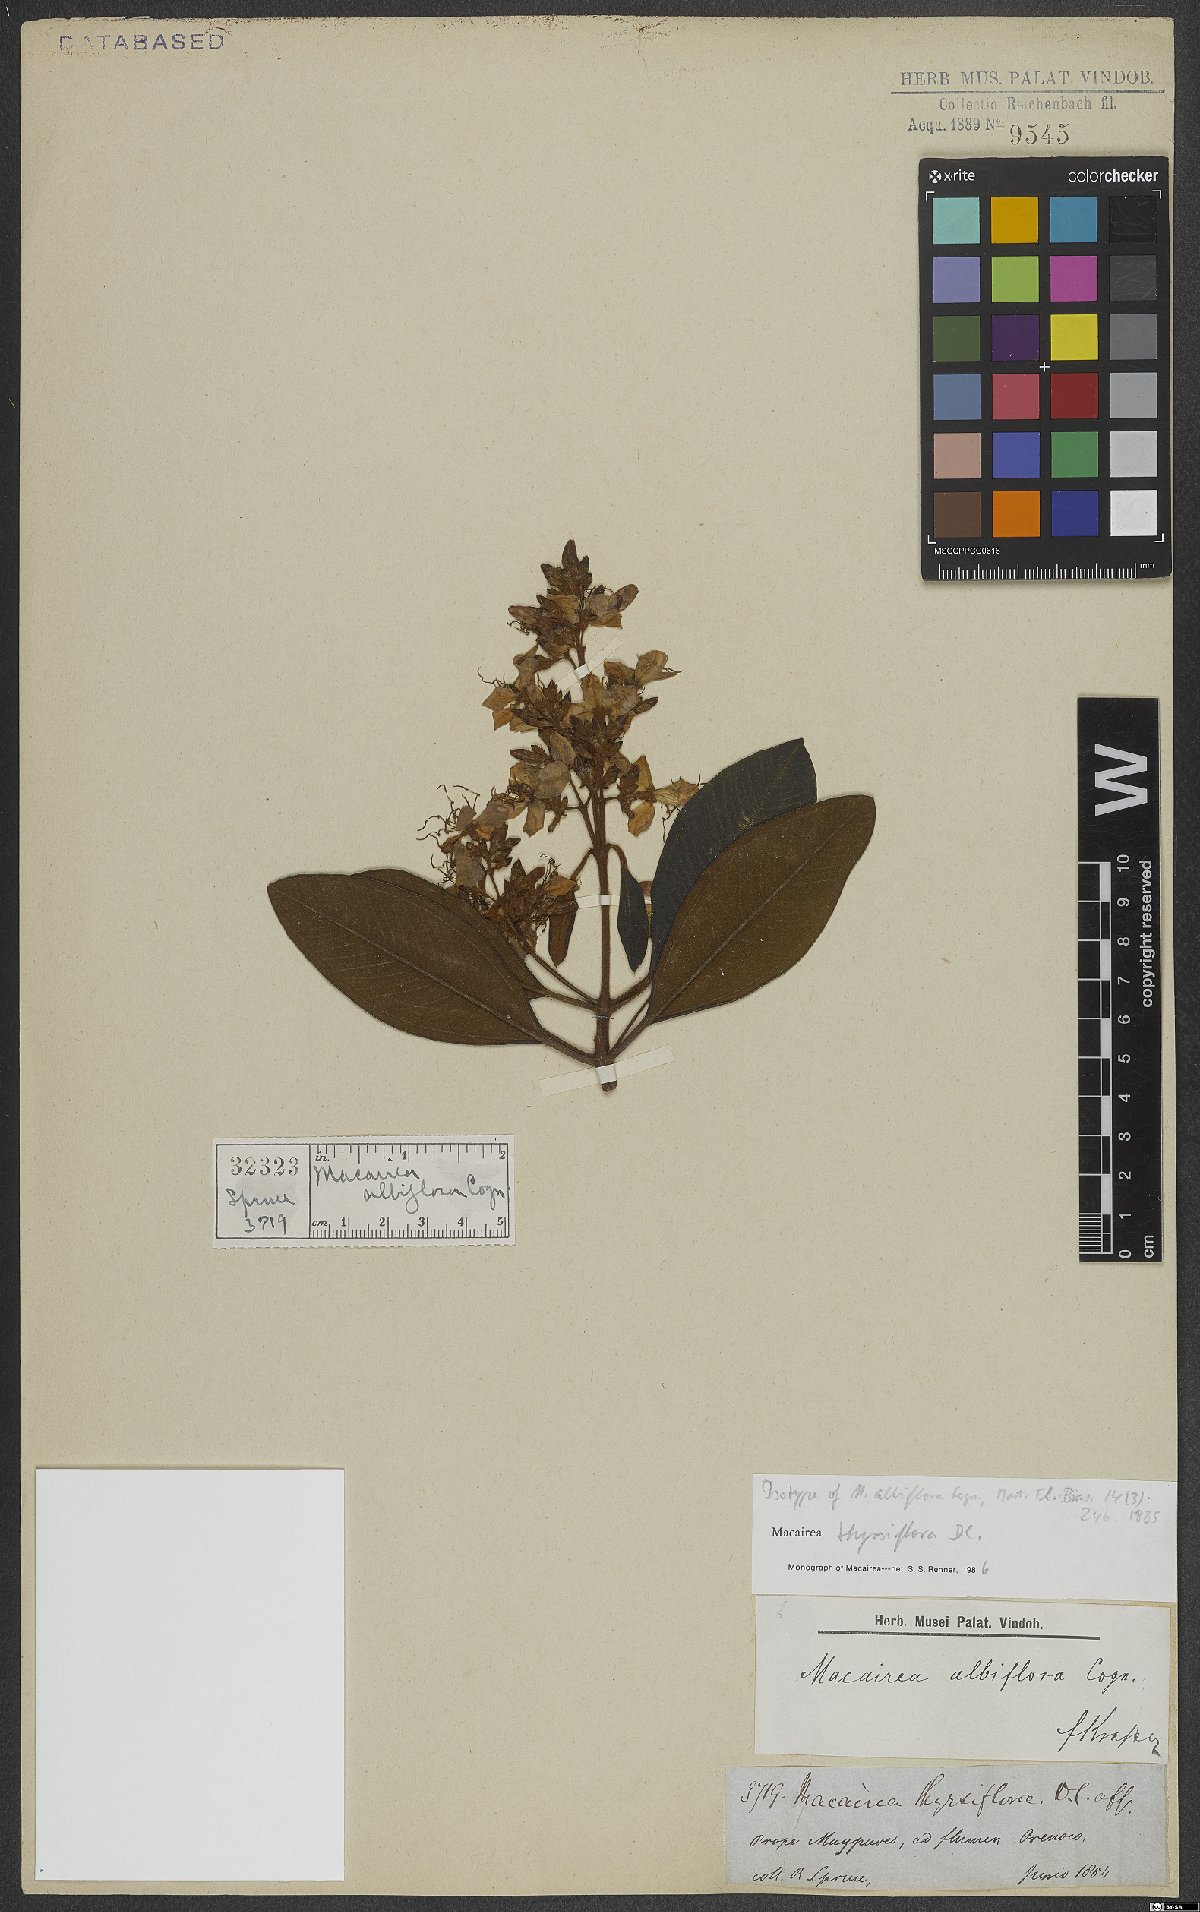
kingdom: Plantae
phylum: Tracheophyta
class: Magnoliopsida
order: Myrtales
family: Melastomataceae
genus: Macairea
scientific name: Macairea thyrsiflora
